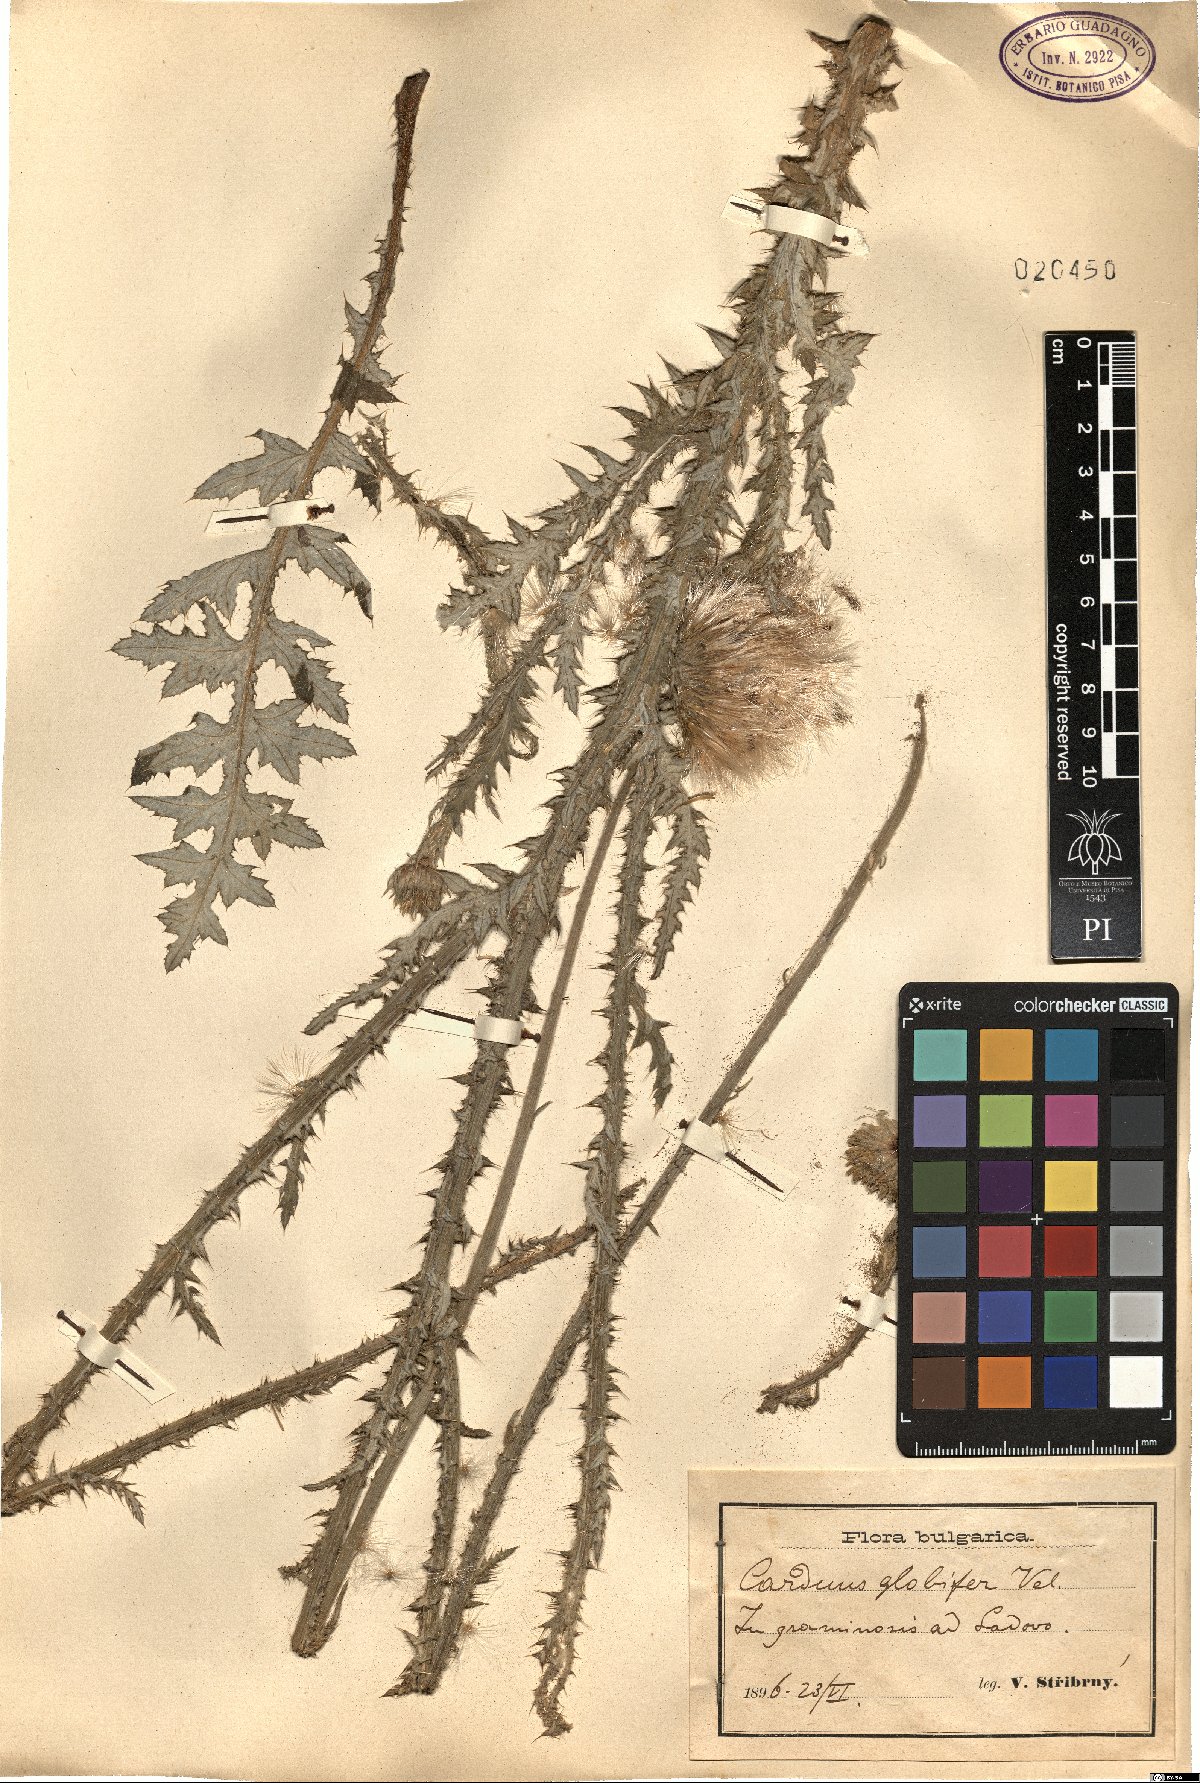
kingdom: Plantae
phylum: Tracheophyta
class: Magnoliopsida
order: Asterales
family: Asteraceae
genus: Carduus
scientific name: Carduus candicans
